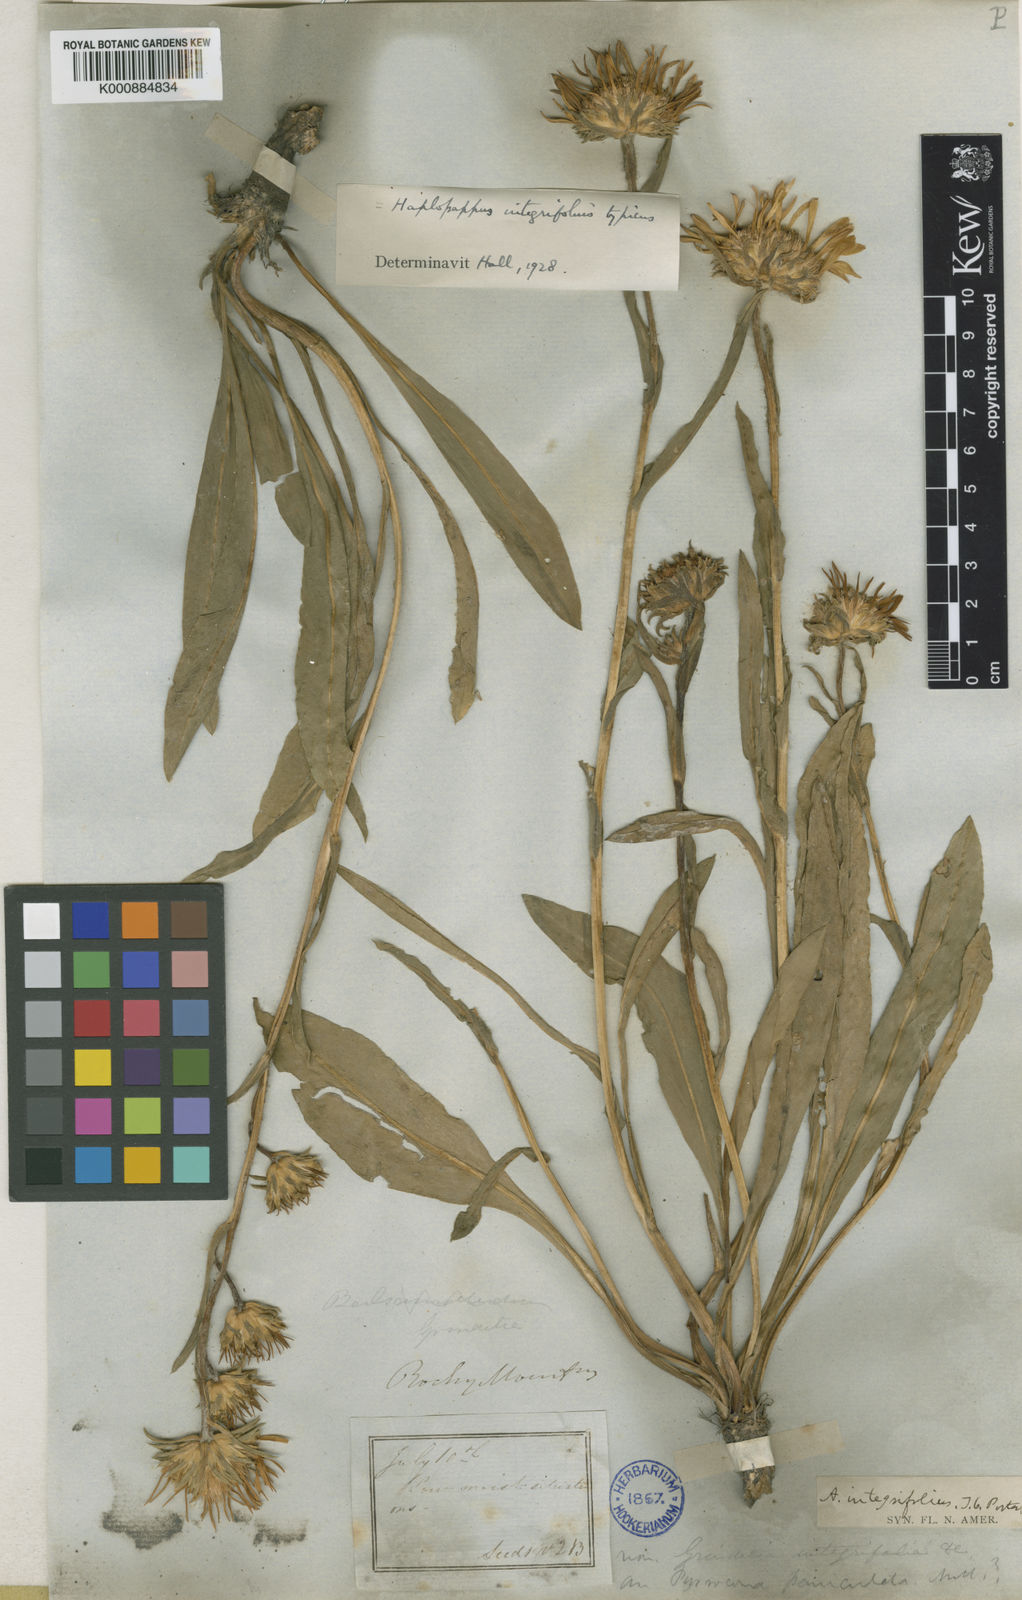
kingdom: Plantae
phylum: Tracheophyta
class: Magnoliopsida
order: Asterales
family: Asteraceae
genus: Pyrrocoma
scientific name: Pyrrocoma
